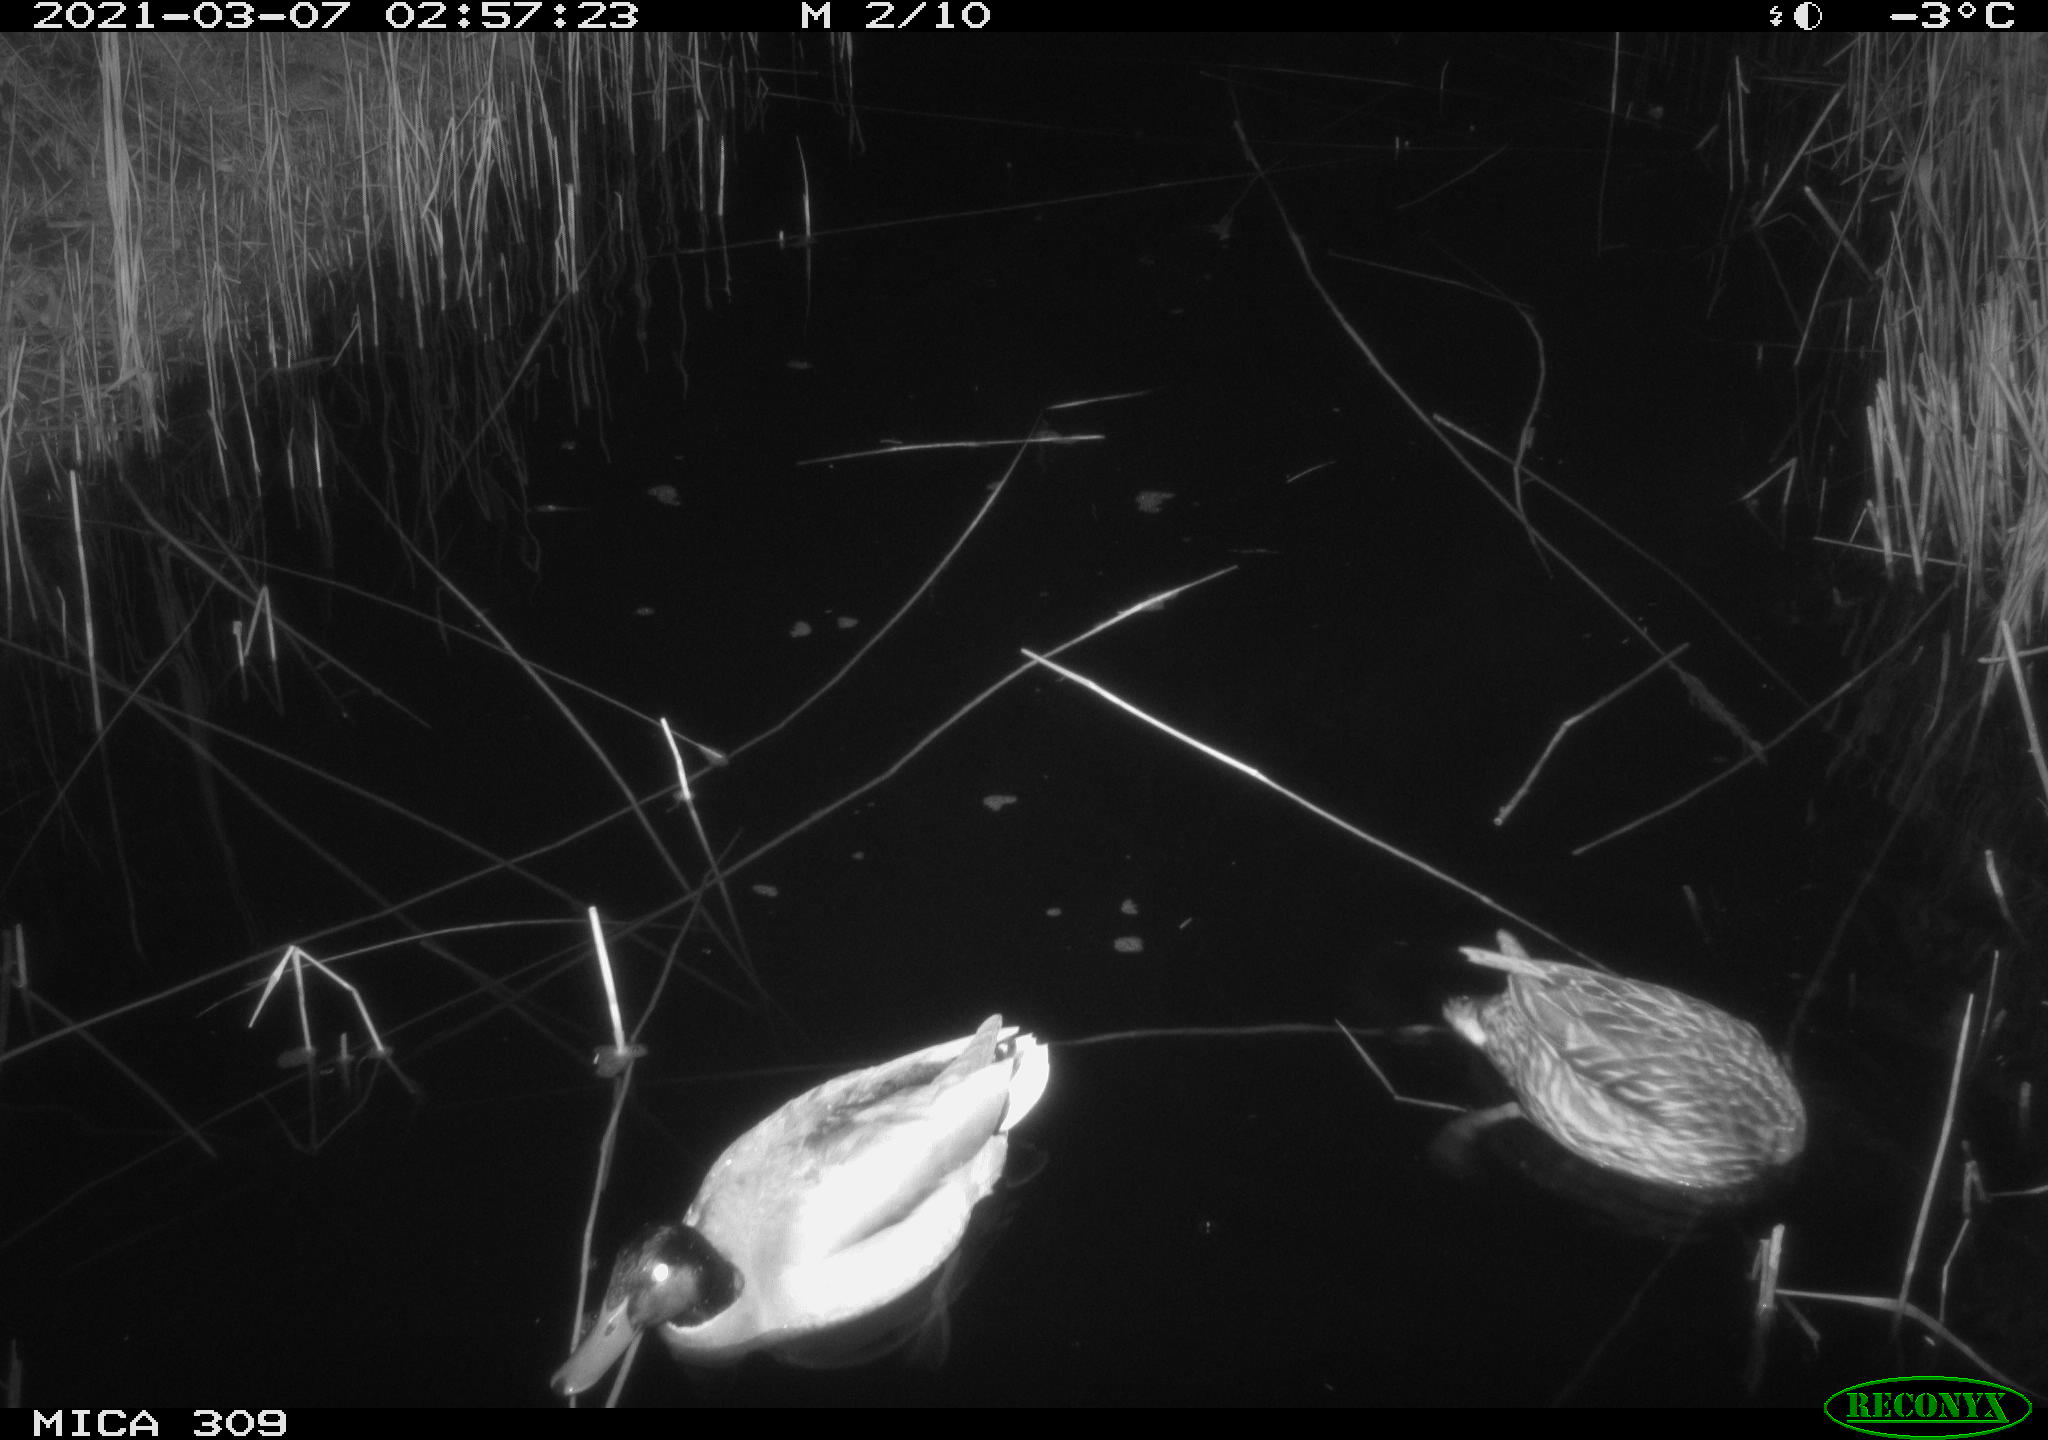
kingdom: Animalia
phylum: Chordata
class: Aves
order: Anseriformes
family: Anatidae
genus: Anas
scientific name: Anas platyrhynchos
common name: Mallard
